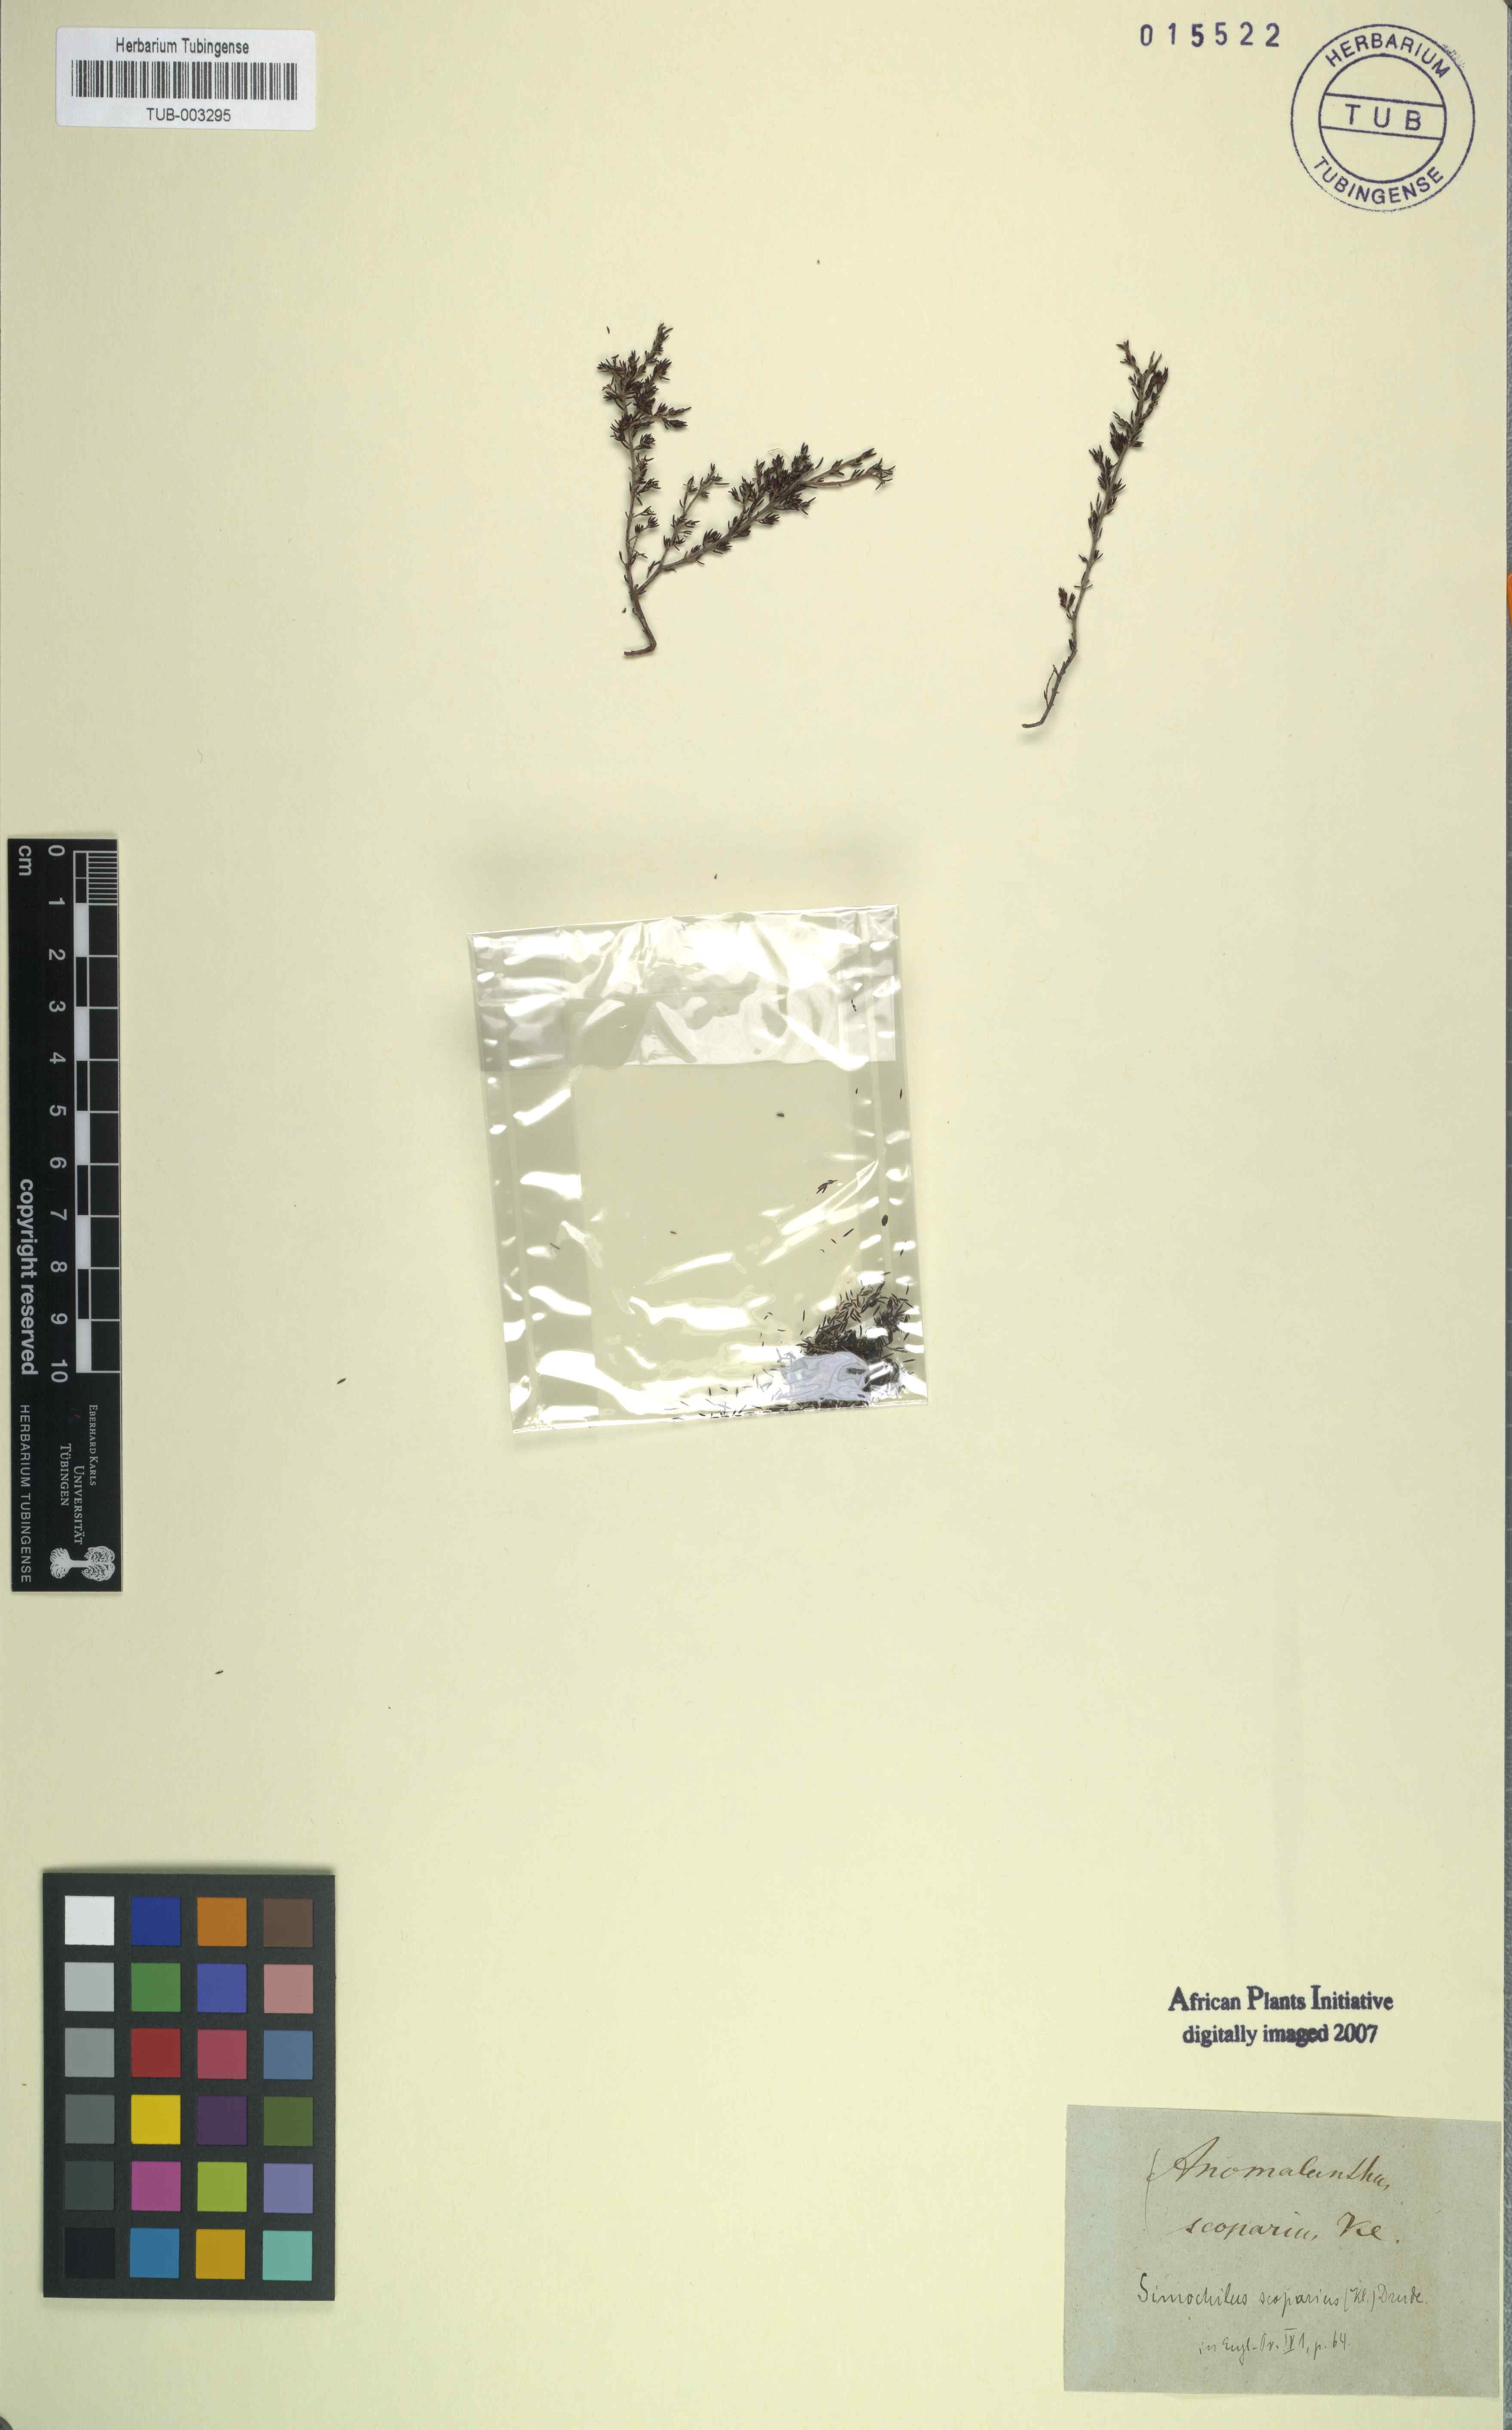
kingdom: Plantae
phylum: Tracheophyta
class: Magnoliopsida
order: Ericales
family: Ericaceae
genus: Erica
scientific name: Erica
